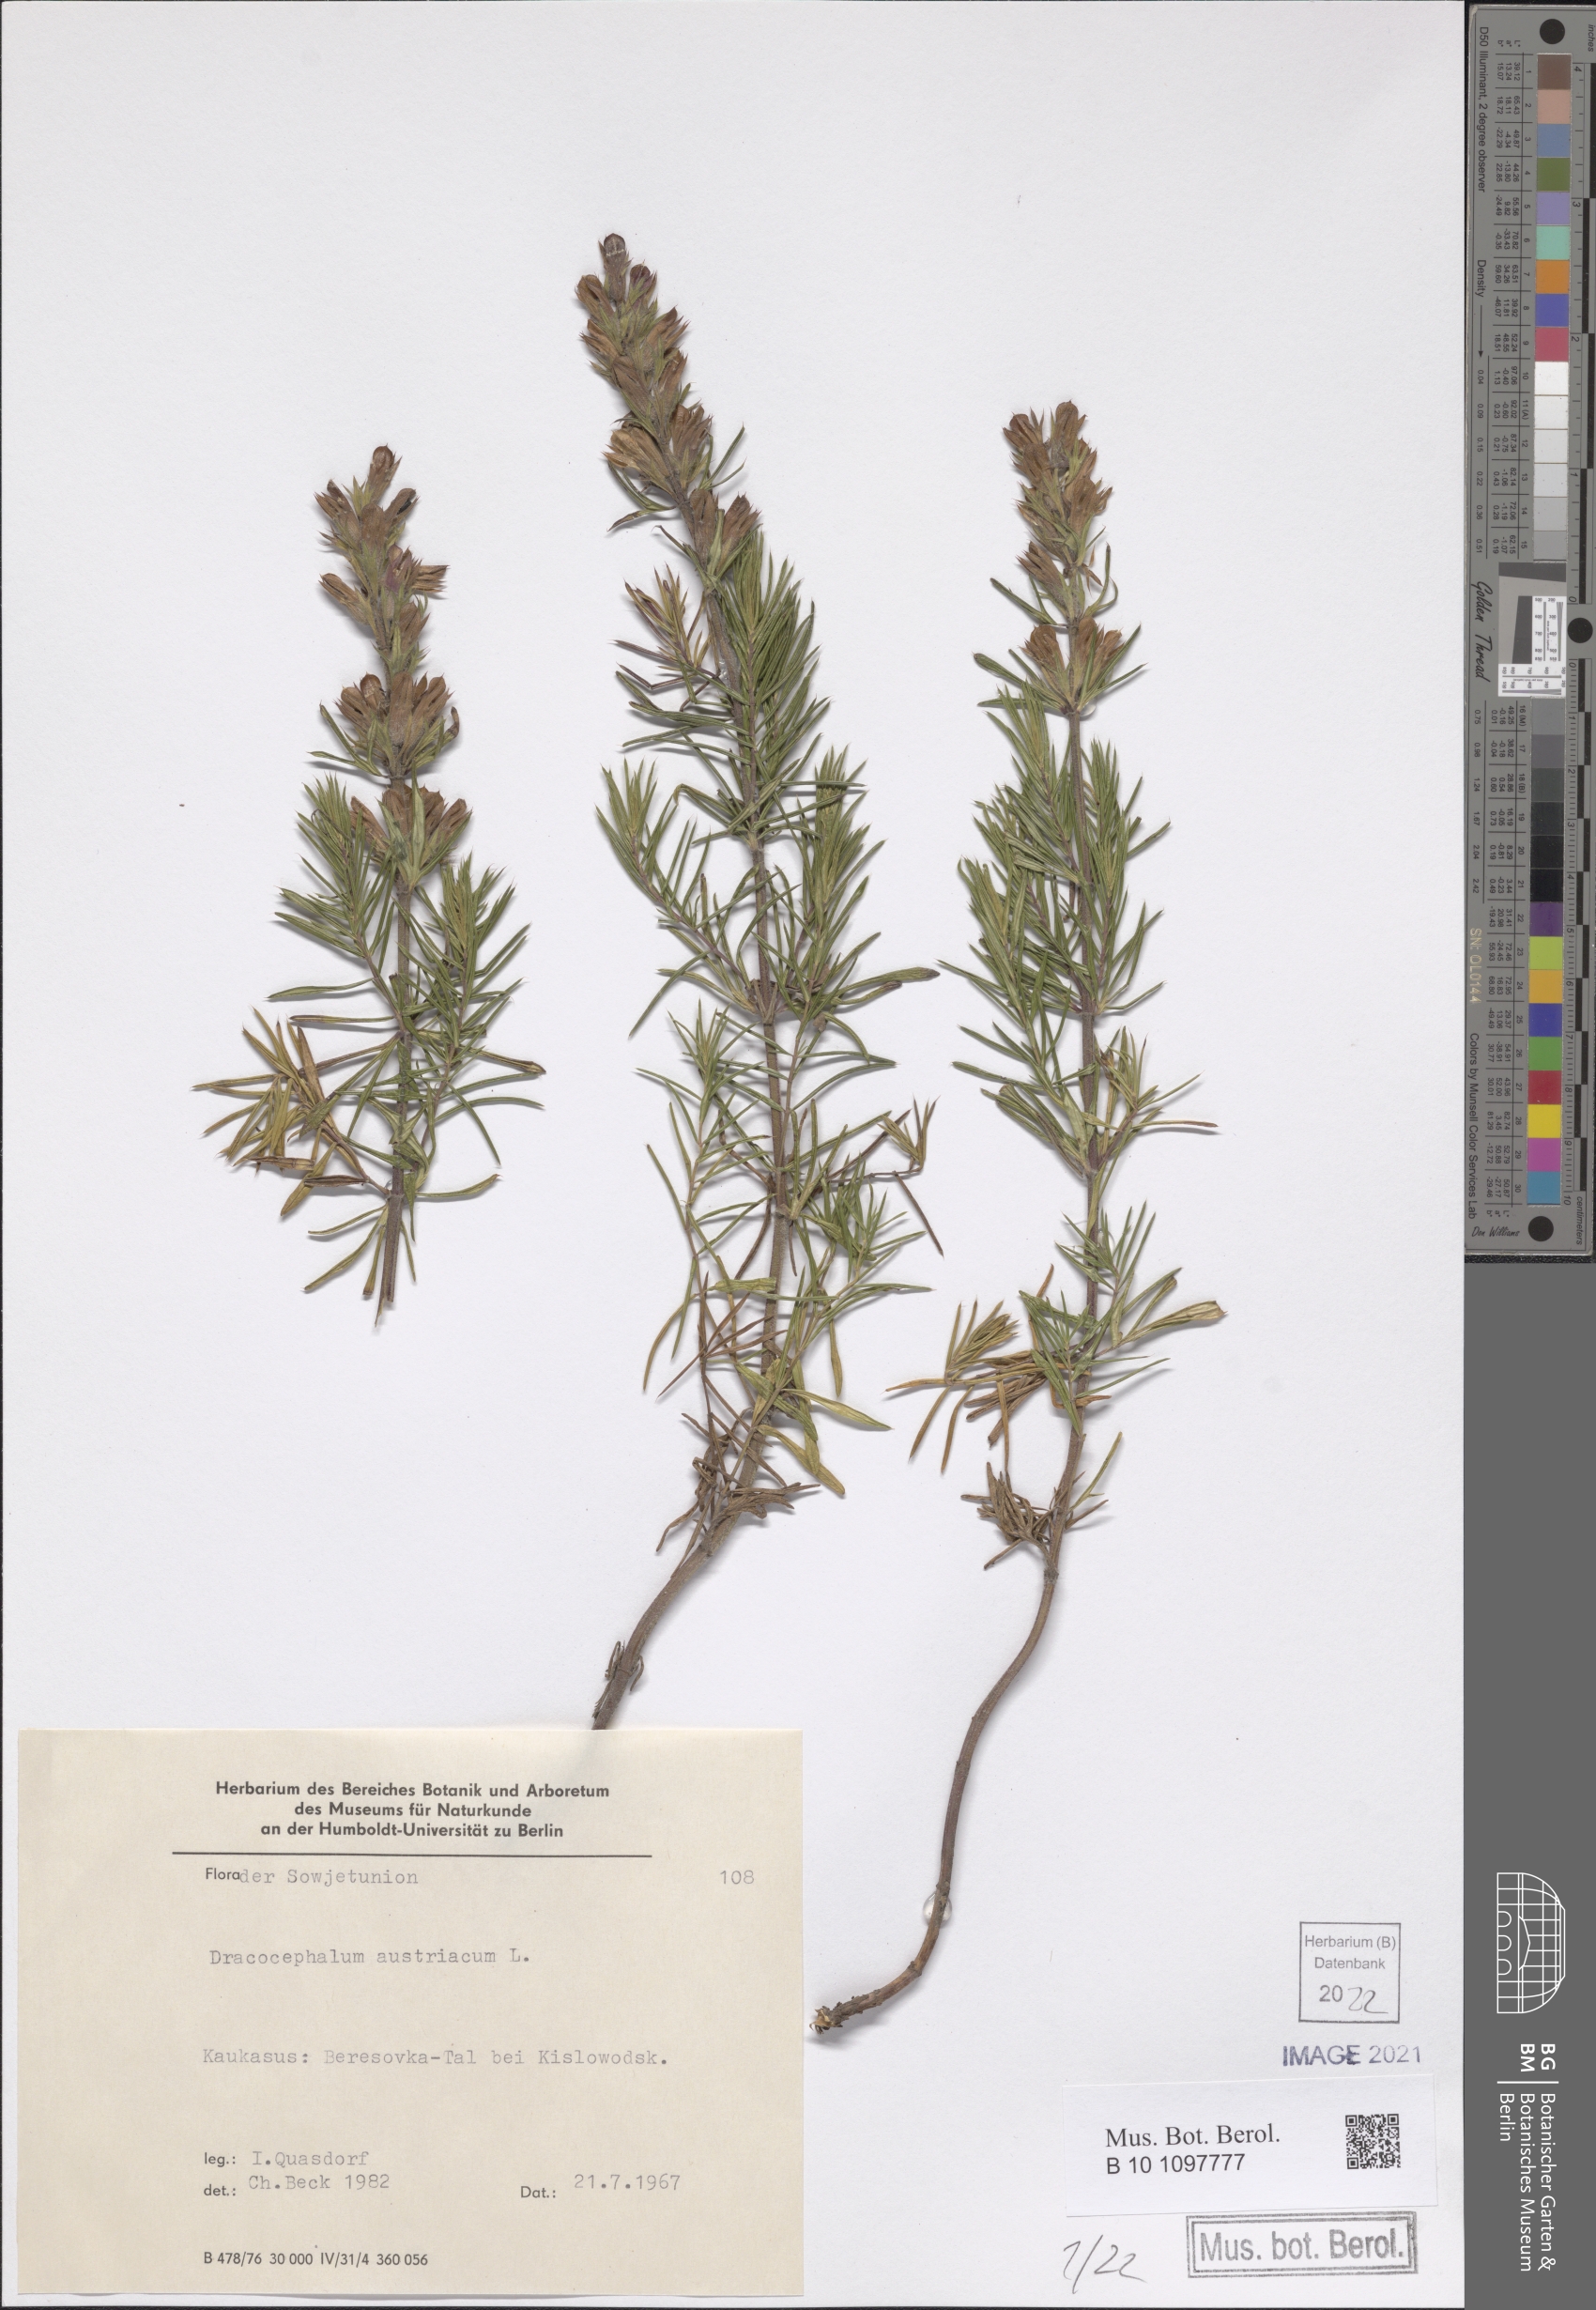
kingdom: Plantae
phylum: Tracheophyta
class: Magnoliopsida
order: Lamiales
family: Lamiaceae
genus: Dracocephalum
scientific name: Dracocephalum austriacum
